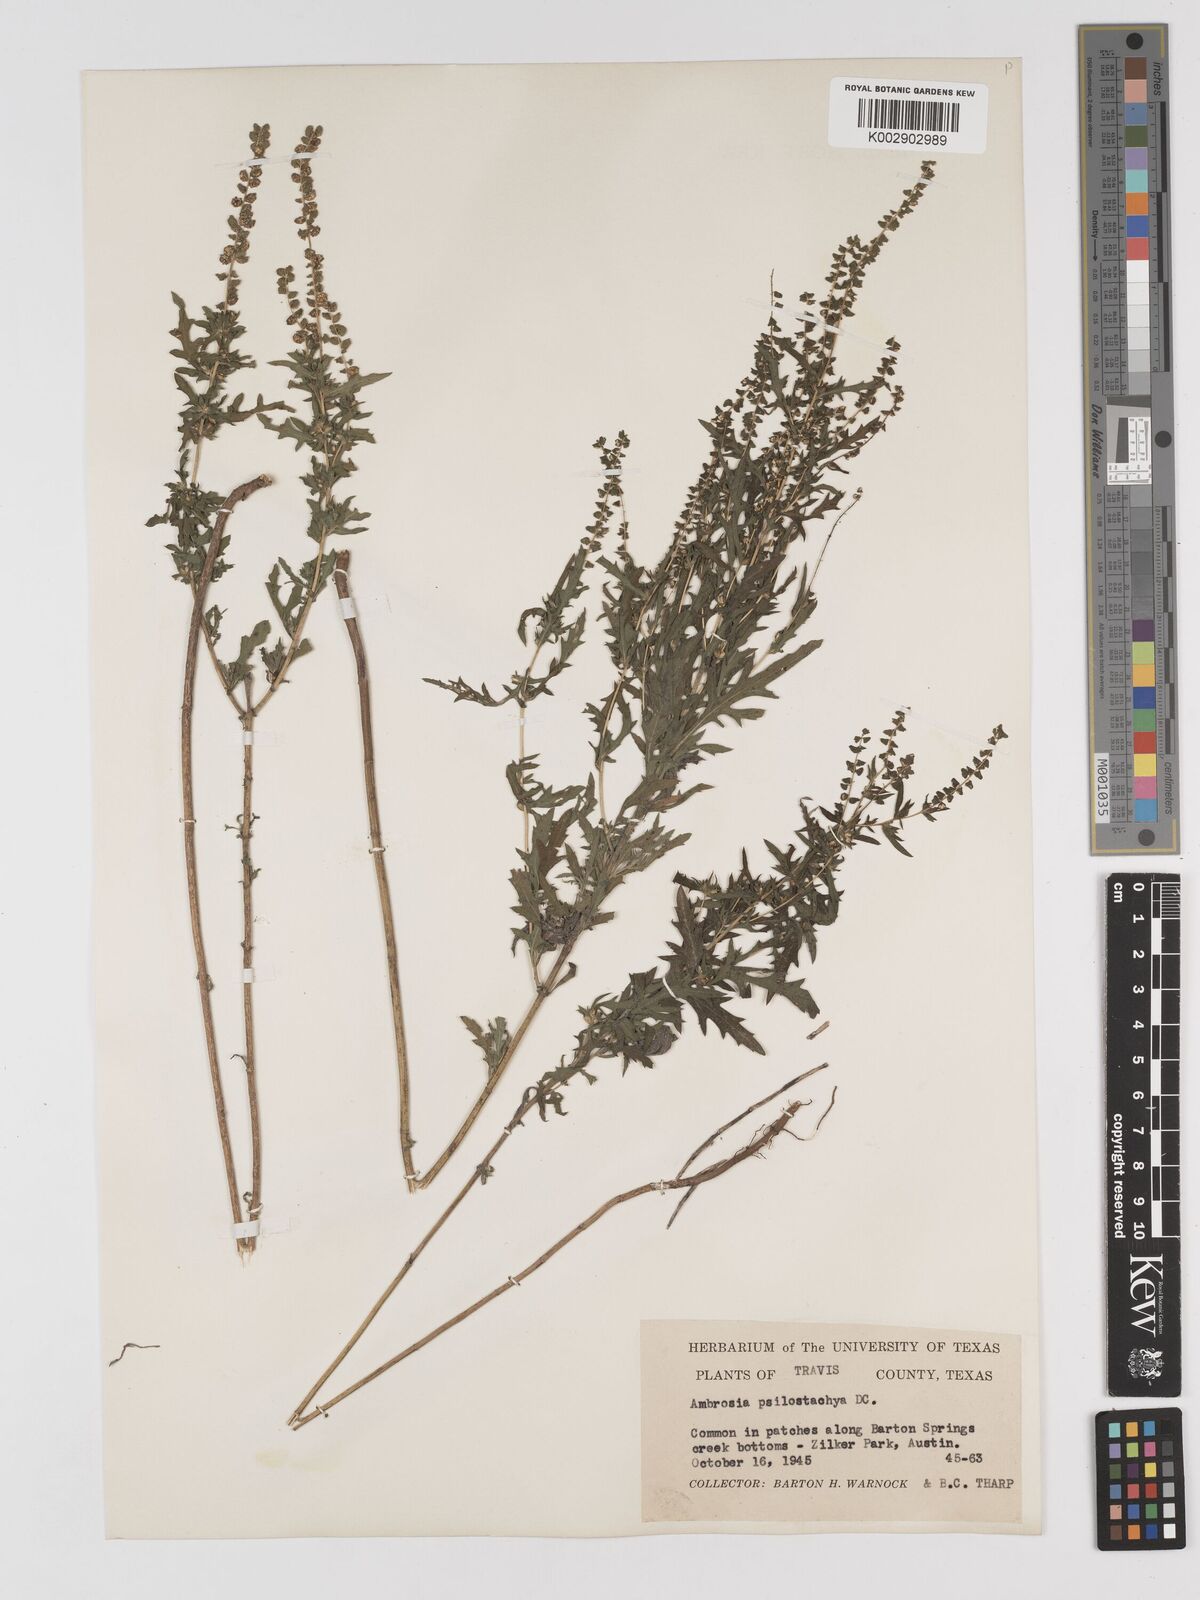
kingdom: Plantae
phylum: Tracheophyta
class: Magnoliopsida
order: Asterales
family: Asteraceae
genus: Ambrosia
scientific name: Ambrosia psilostachya
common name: Perennial ragweed
